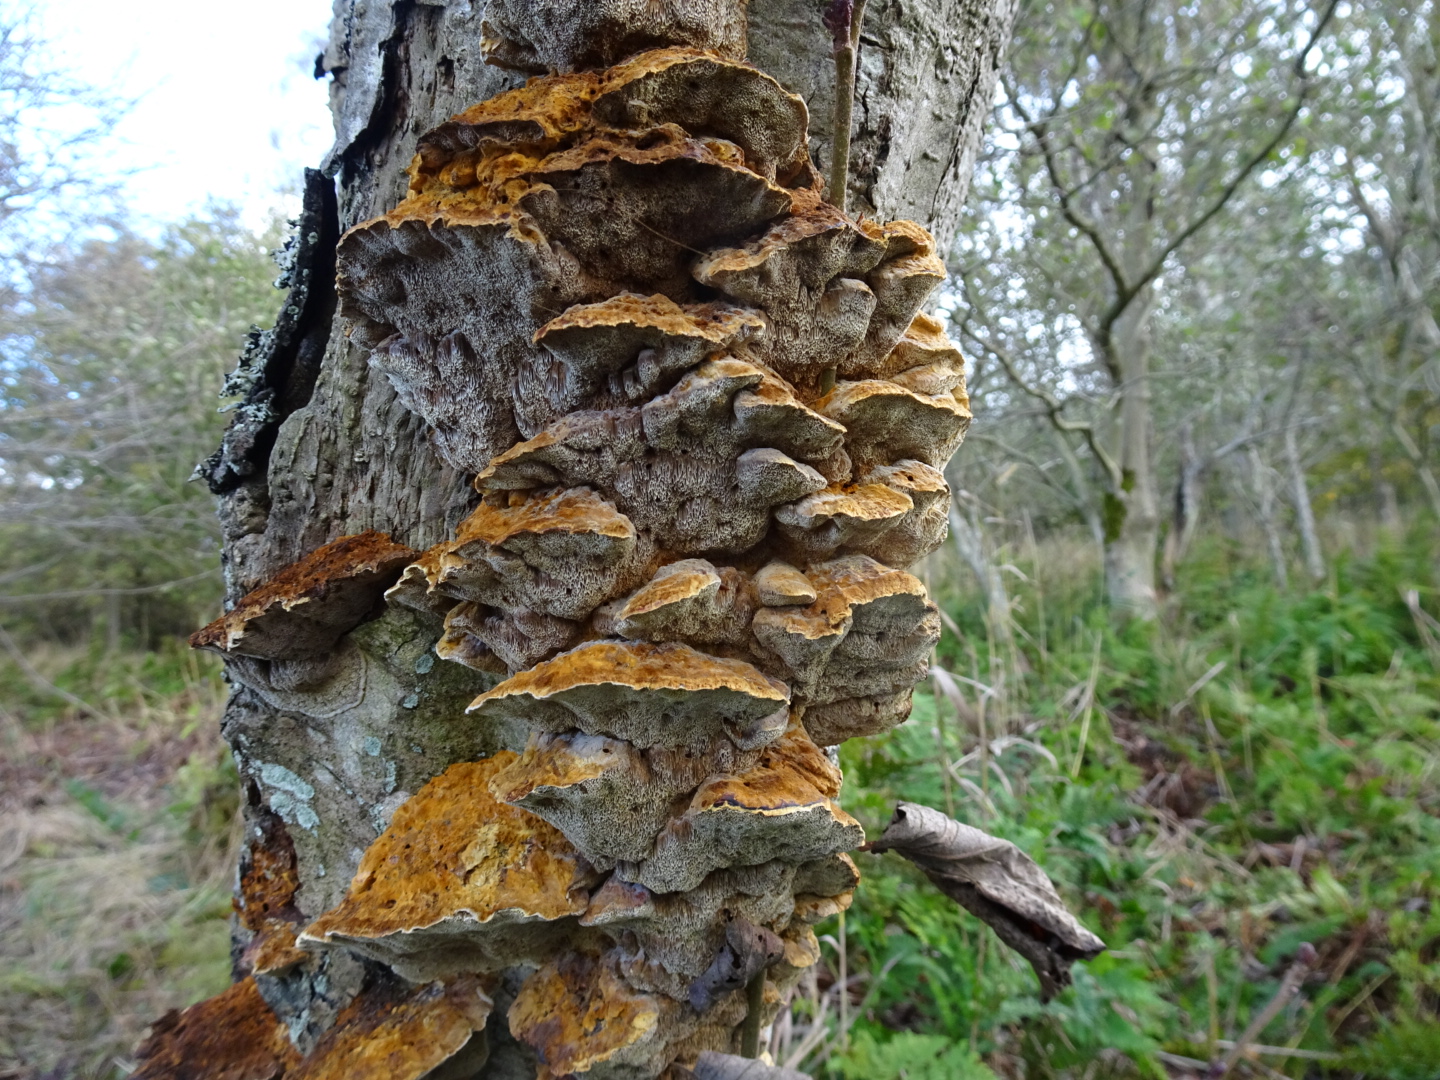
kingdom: Fungi
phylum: Basidiomycota
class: Agaricomycetes
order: Hymenochaetales
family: Hymenochaetaceae
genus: Xanthoporia
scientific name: Xanthoporia radiata
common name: elle-spejlporesvamp
